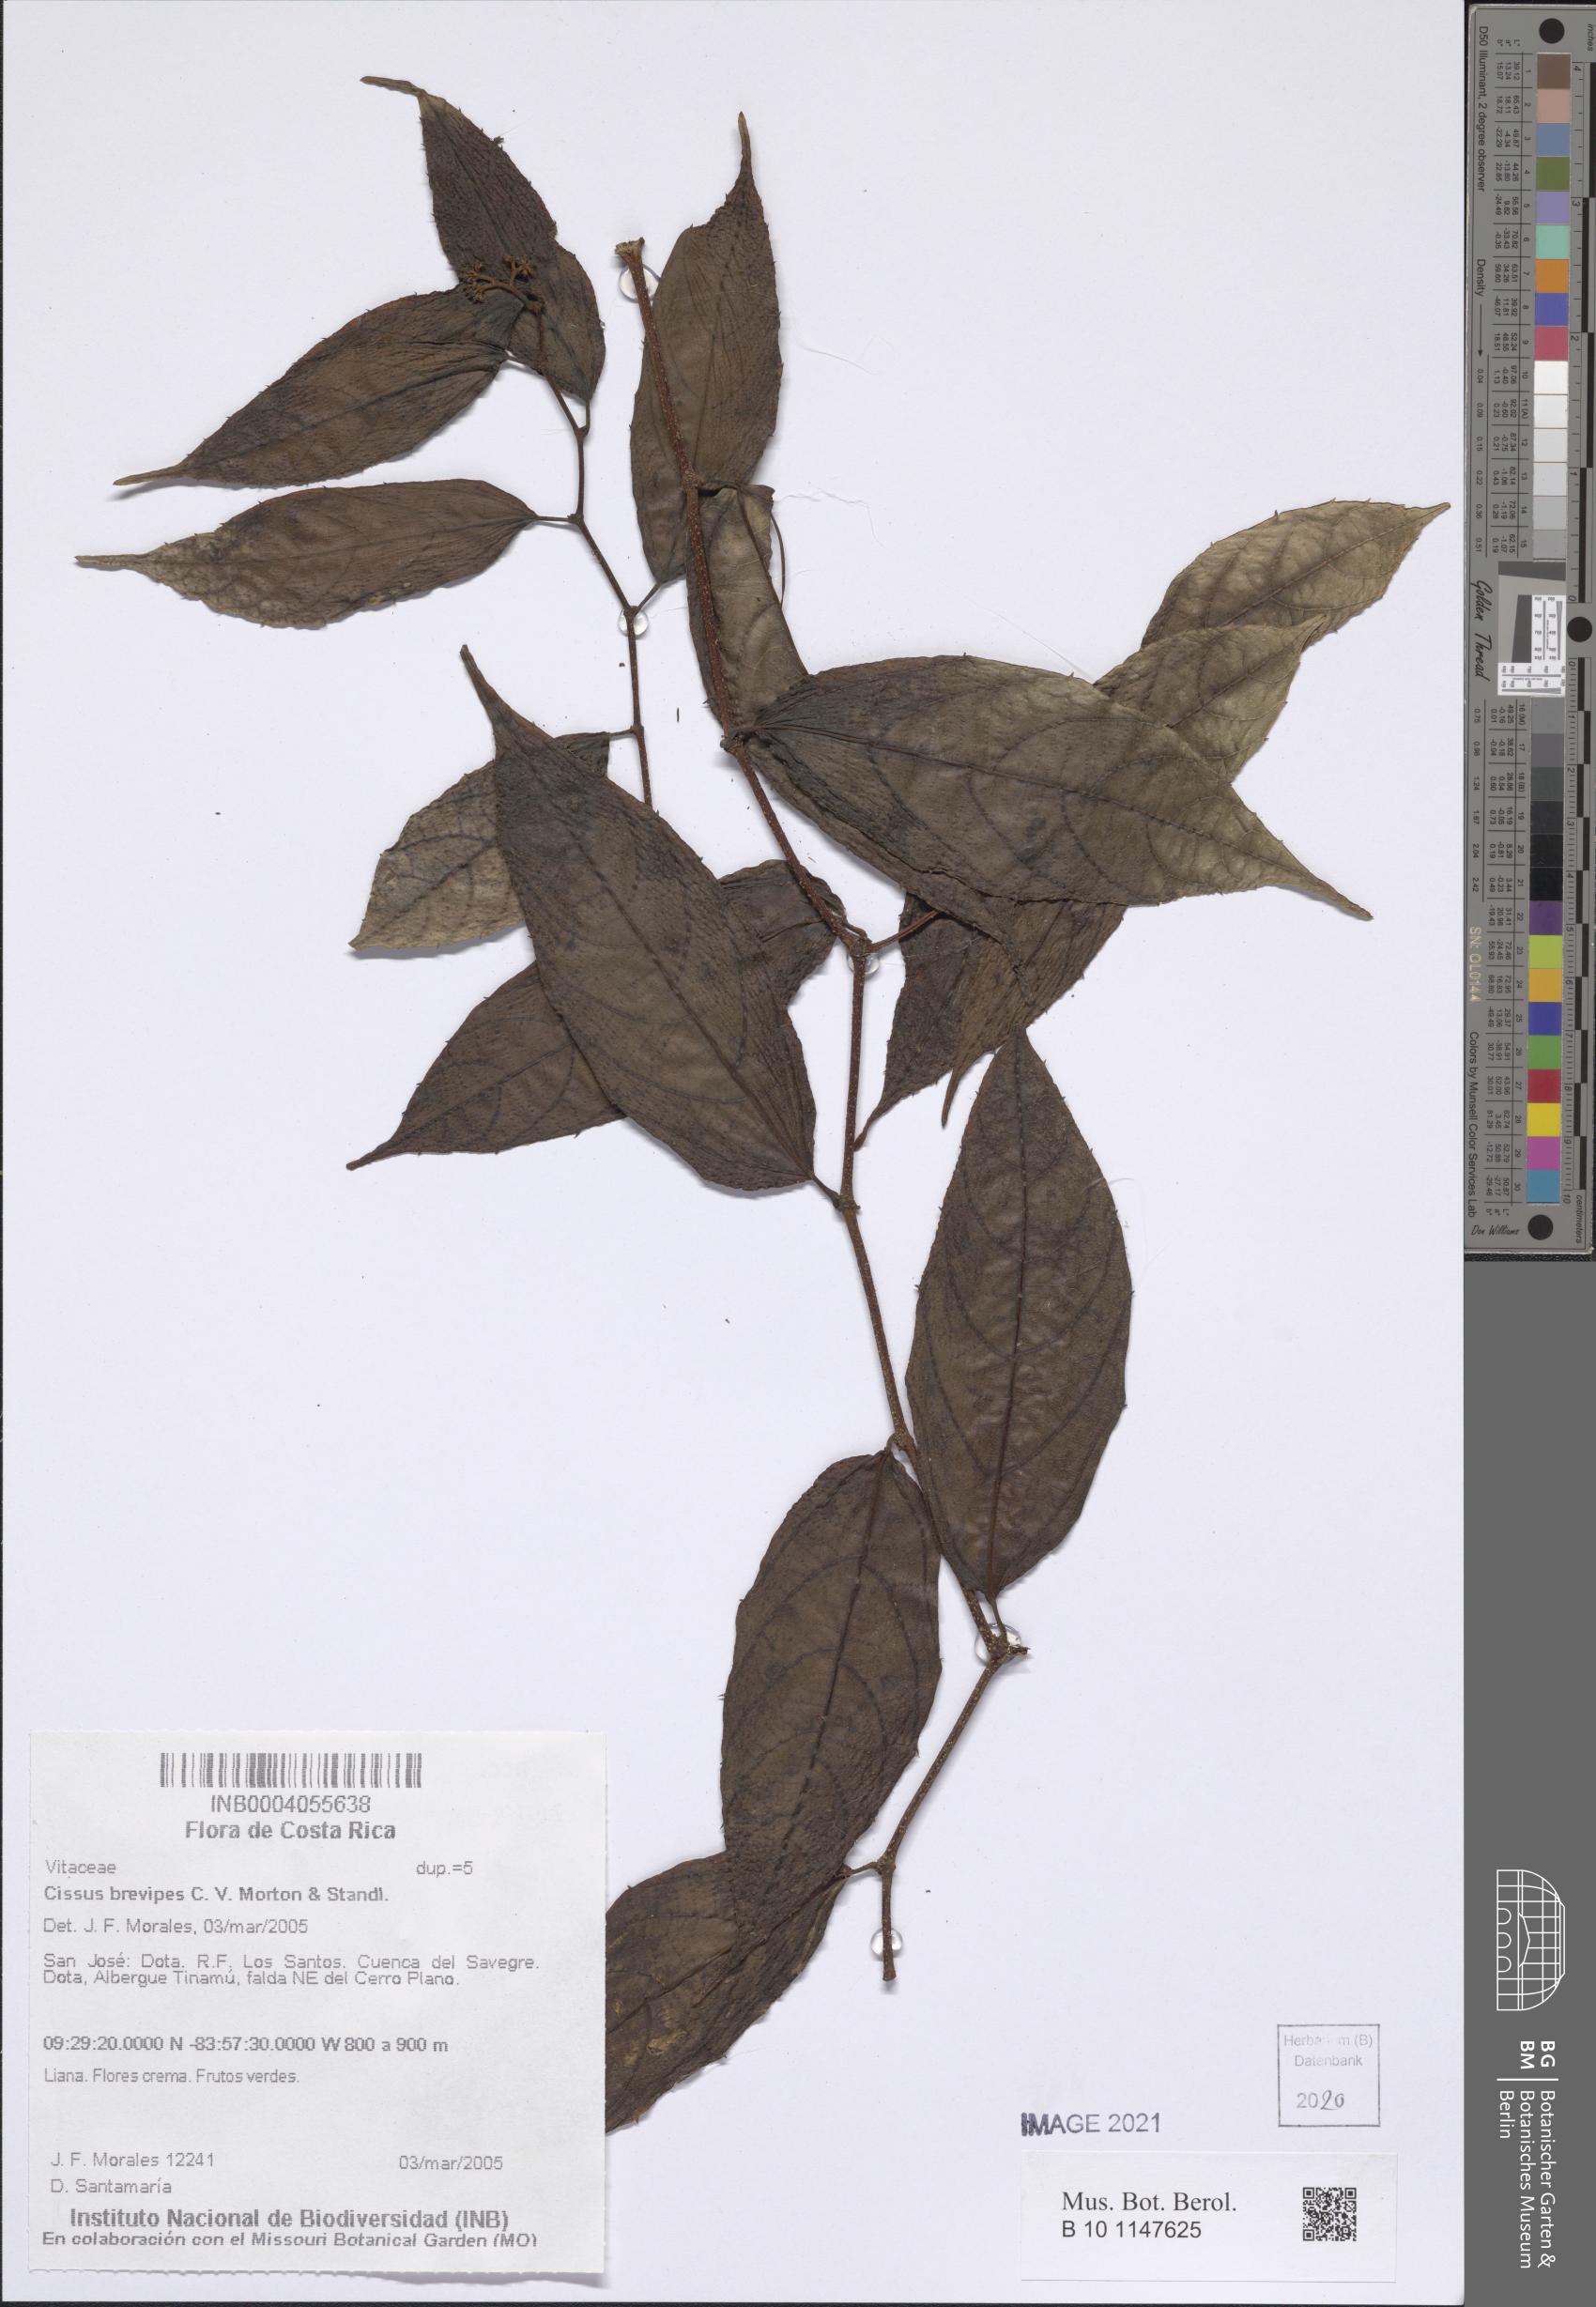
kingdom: Plantae
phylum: Tracheophyta
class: Magnoliopsida
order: Vitales
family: Vitaceae
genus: Cissus
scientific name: Cissus brevipes
